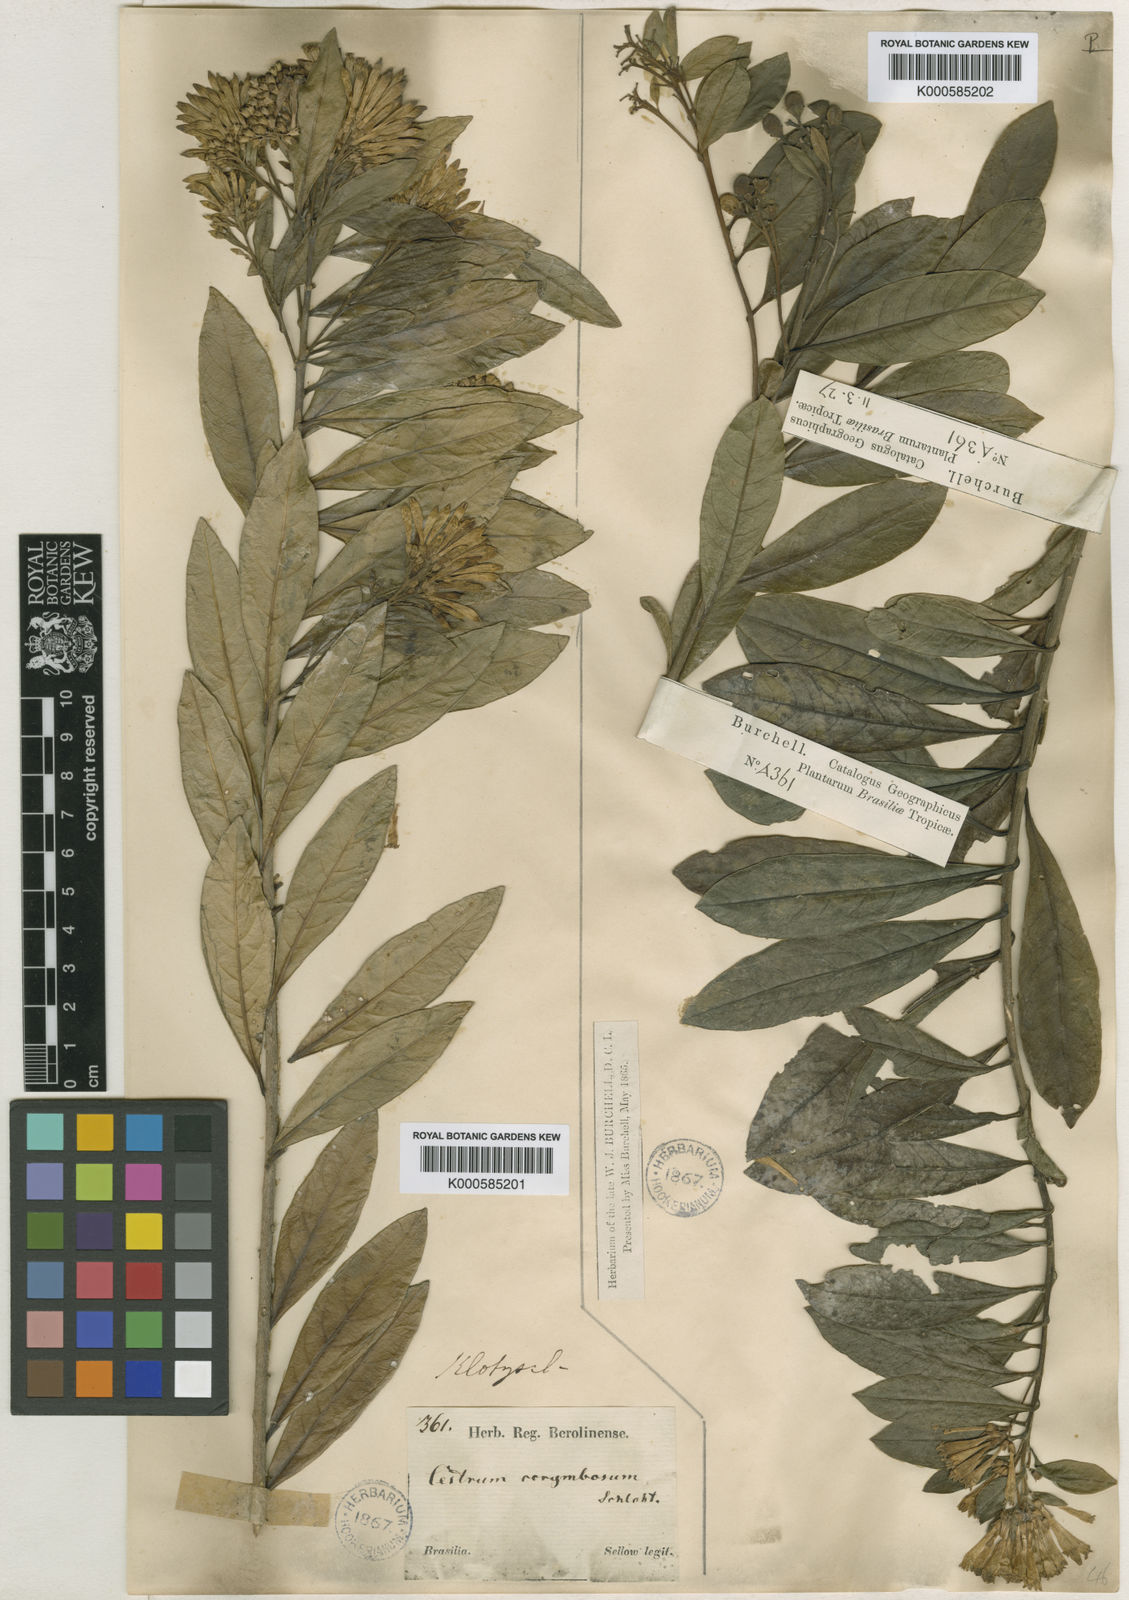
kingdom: Plantae
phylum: Tracheophyta
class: Magnoliopsida
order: Solanales
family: Solanaceae
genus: Cestrum
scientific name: Cestrum corymbosum
